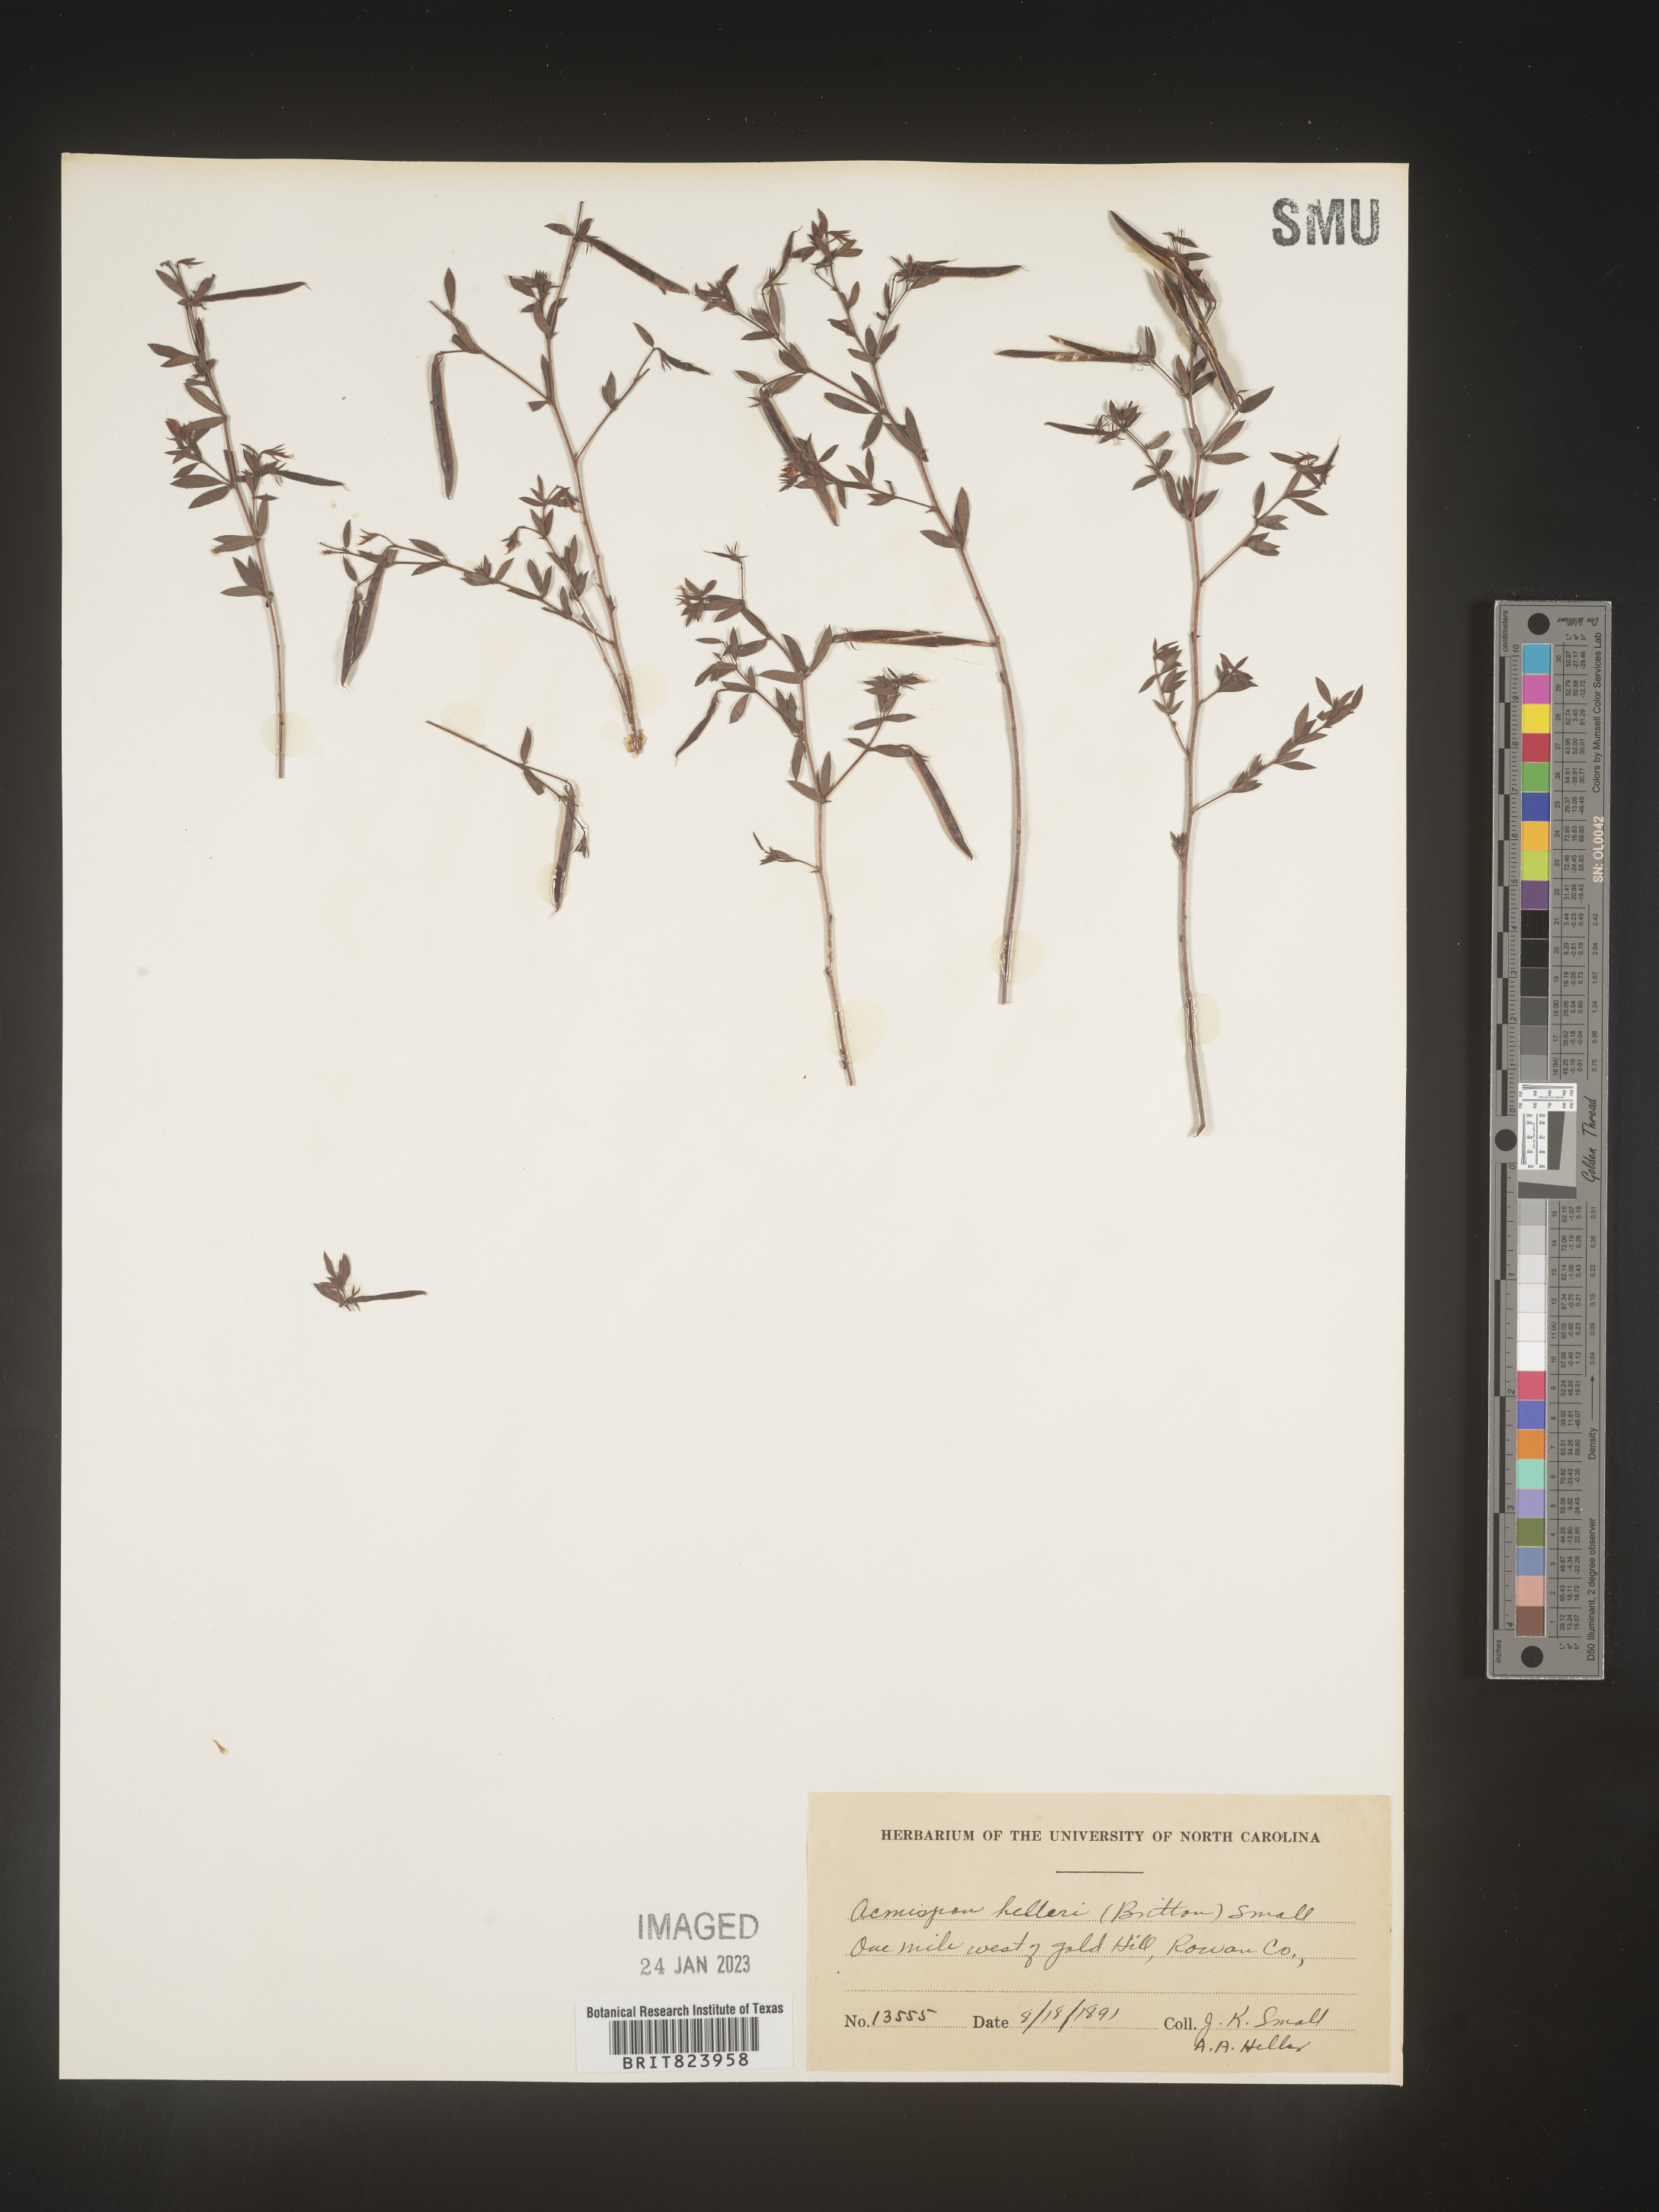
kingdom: Plantae
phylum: Tracheophyta
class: Magnoliopsida
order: Fabales
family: Fabaceae
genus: Lotus
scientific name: Lotus
